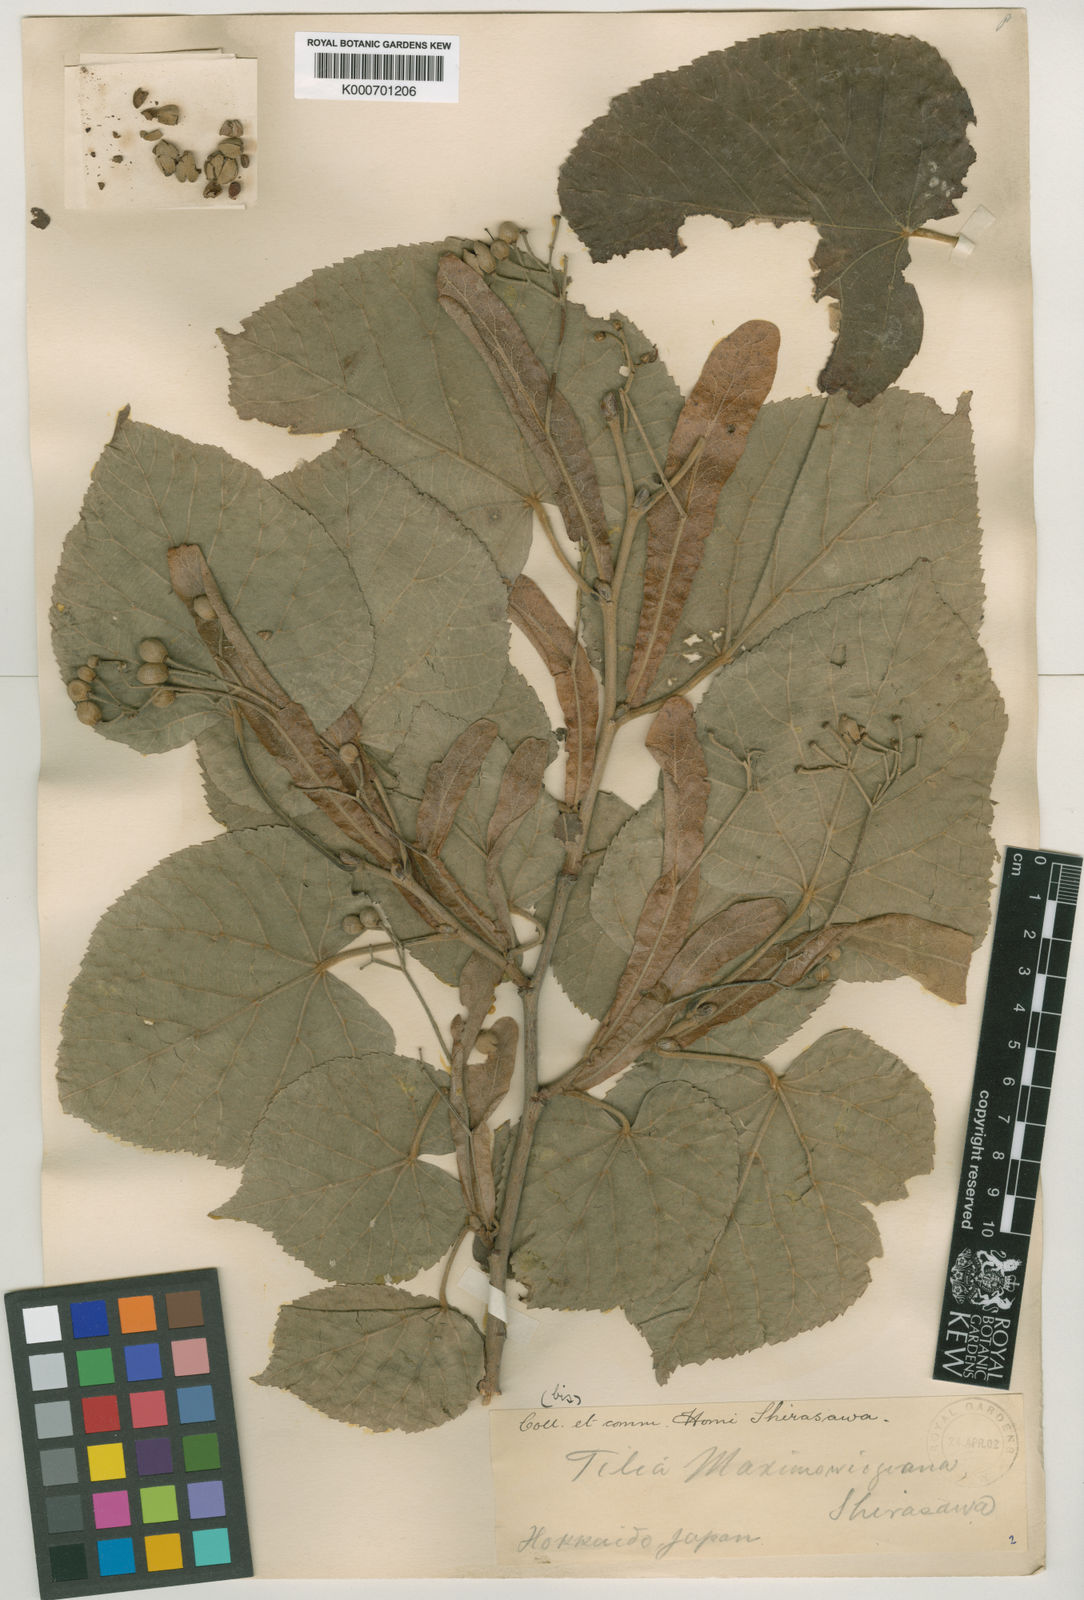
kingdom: Plantae
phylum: Tracheophyta
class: Magnoliopsida
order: Malvales
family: Malvaceae
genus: Tilia
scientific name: Tilia maximowicziana
